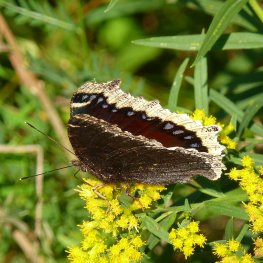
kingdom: Animalia
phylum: Arthropoda
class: Insecta
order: Lepidoptera
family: Nymphalidae
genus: Nymphalis
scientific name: Nymphalis antiopa
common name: Mourning Cloak
